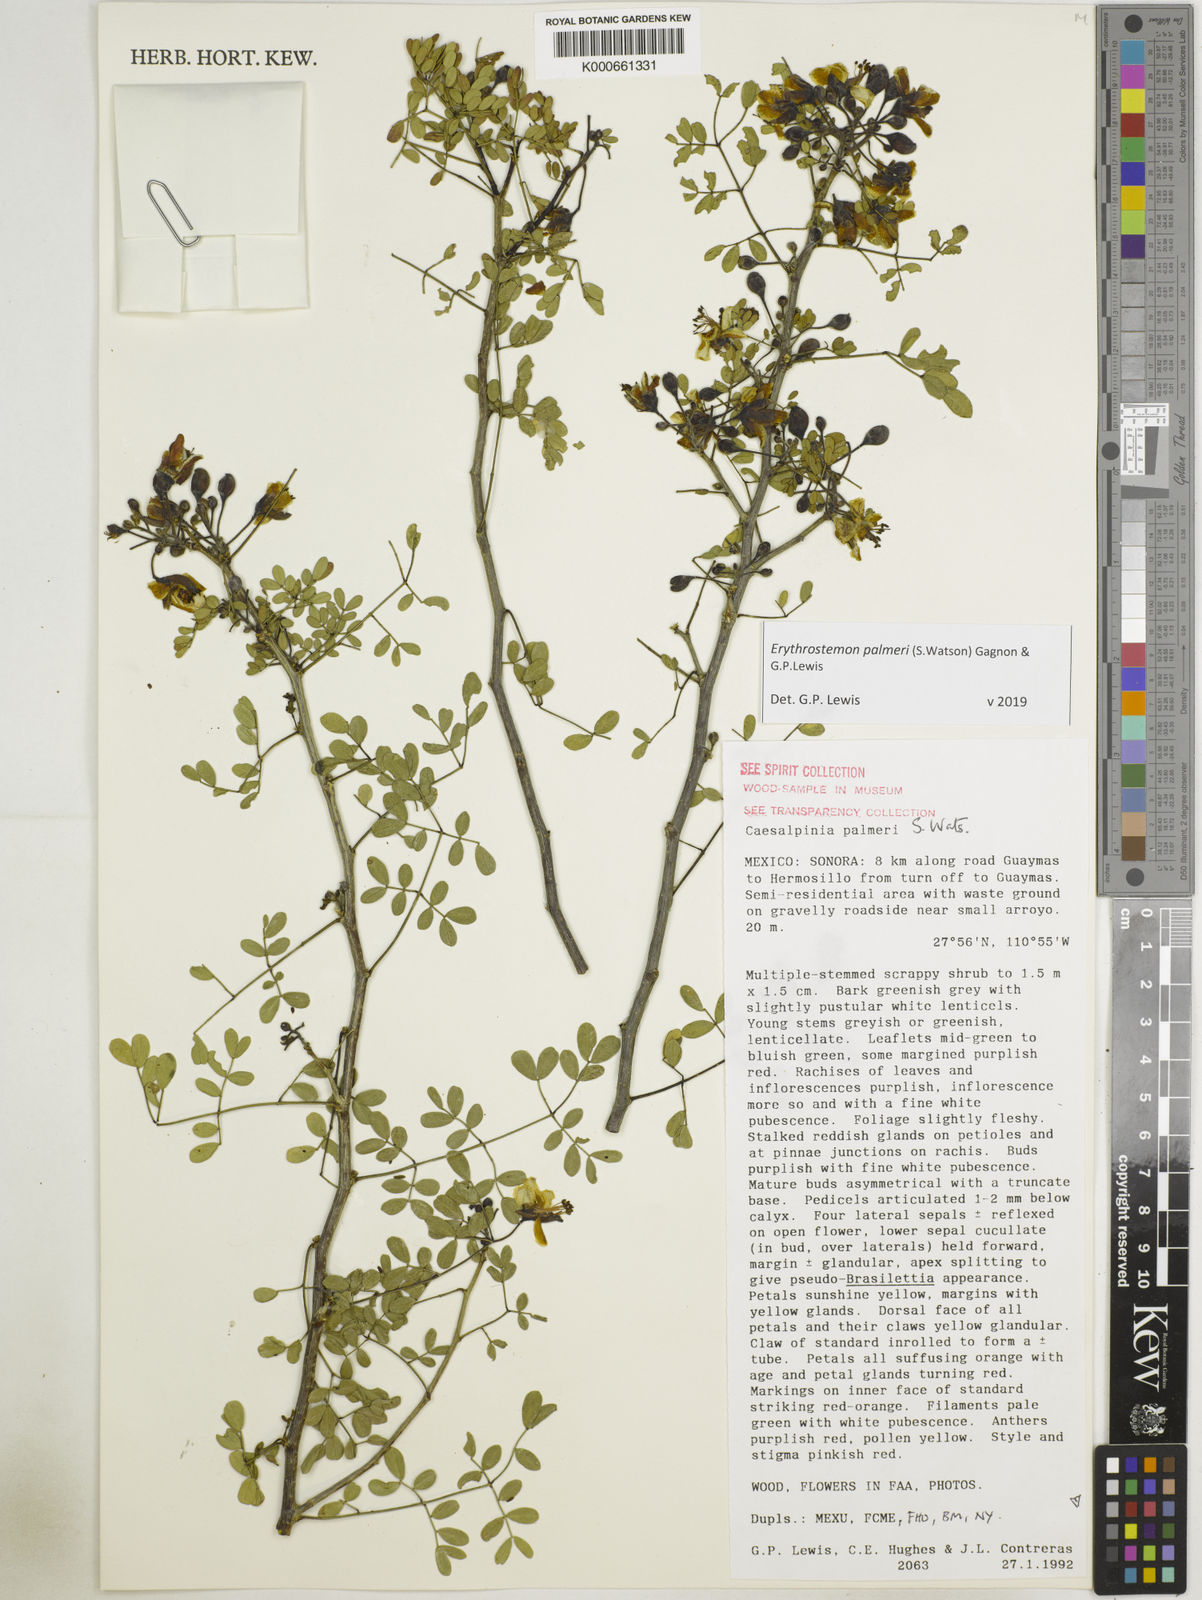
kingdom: Plantae
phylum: Tracheophyta
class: Magnoliopsida
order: Fabales
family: Fabaceae
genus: Erythrostemon
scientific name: Erythrostemon palmeri
